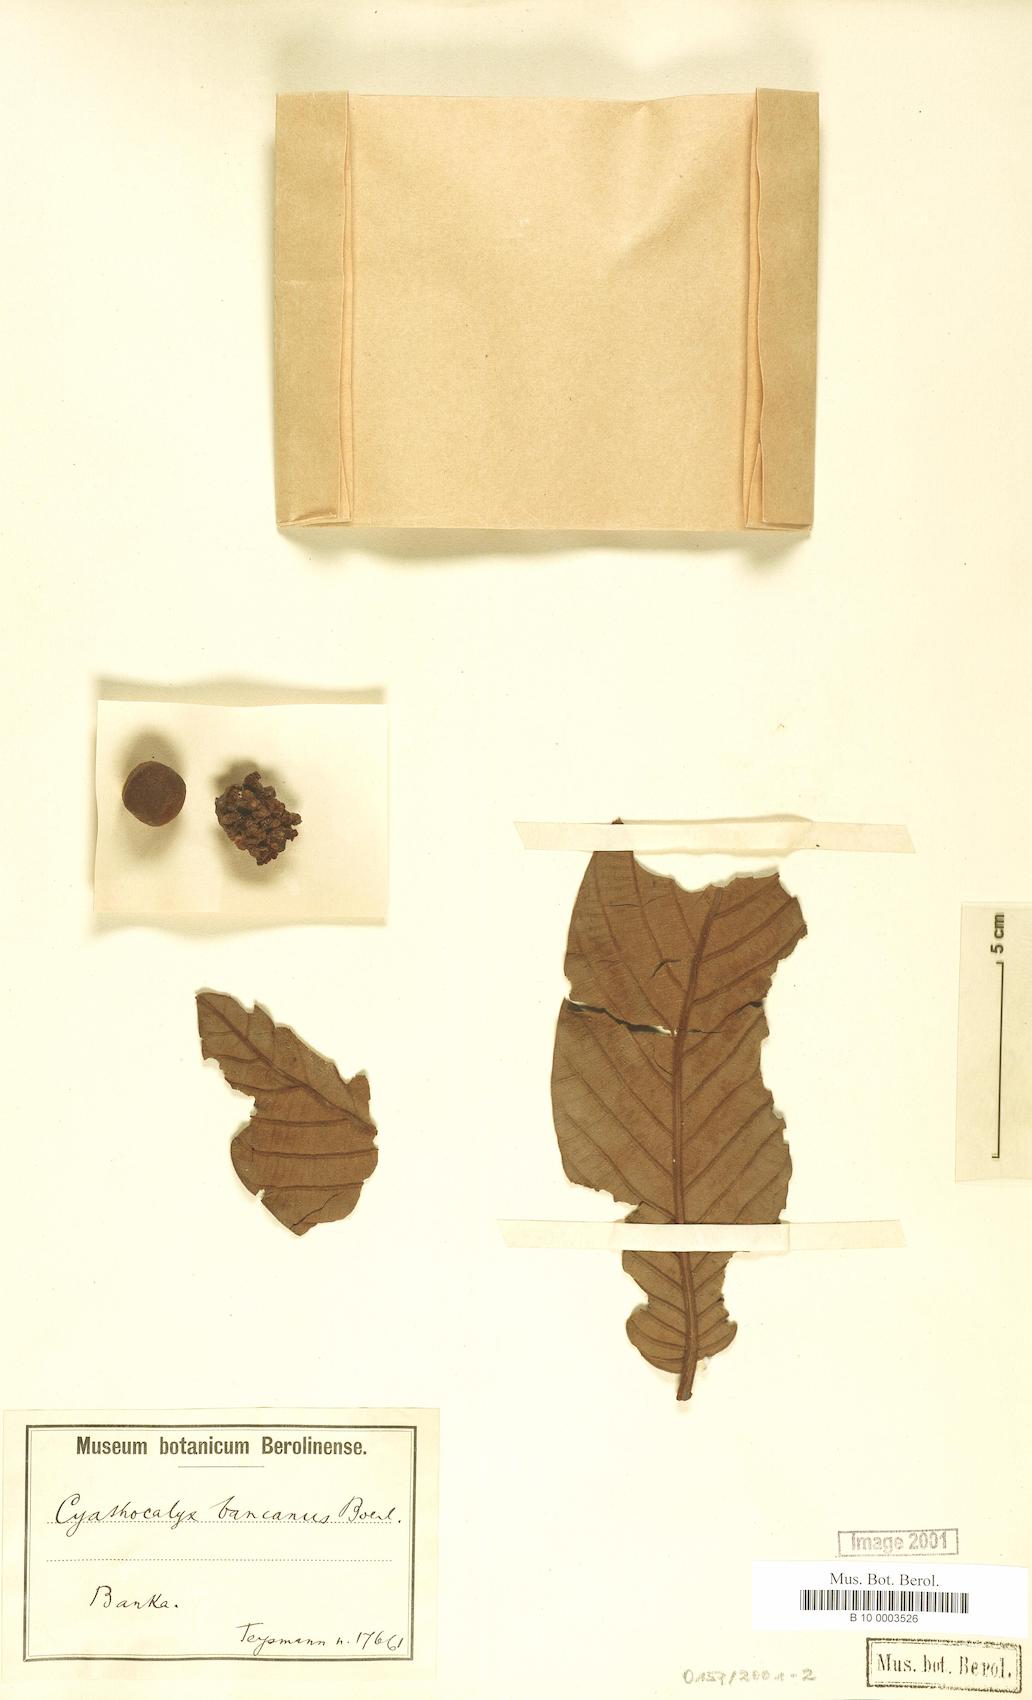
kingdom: Plantae
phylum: Tracheophyta
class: Magnoliopsida
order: Magnoliales
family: Annonaceae
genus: Drepananthus
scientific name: Drepananthus ramuliflorus
